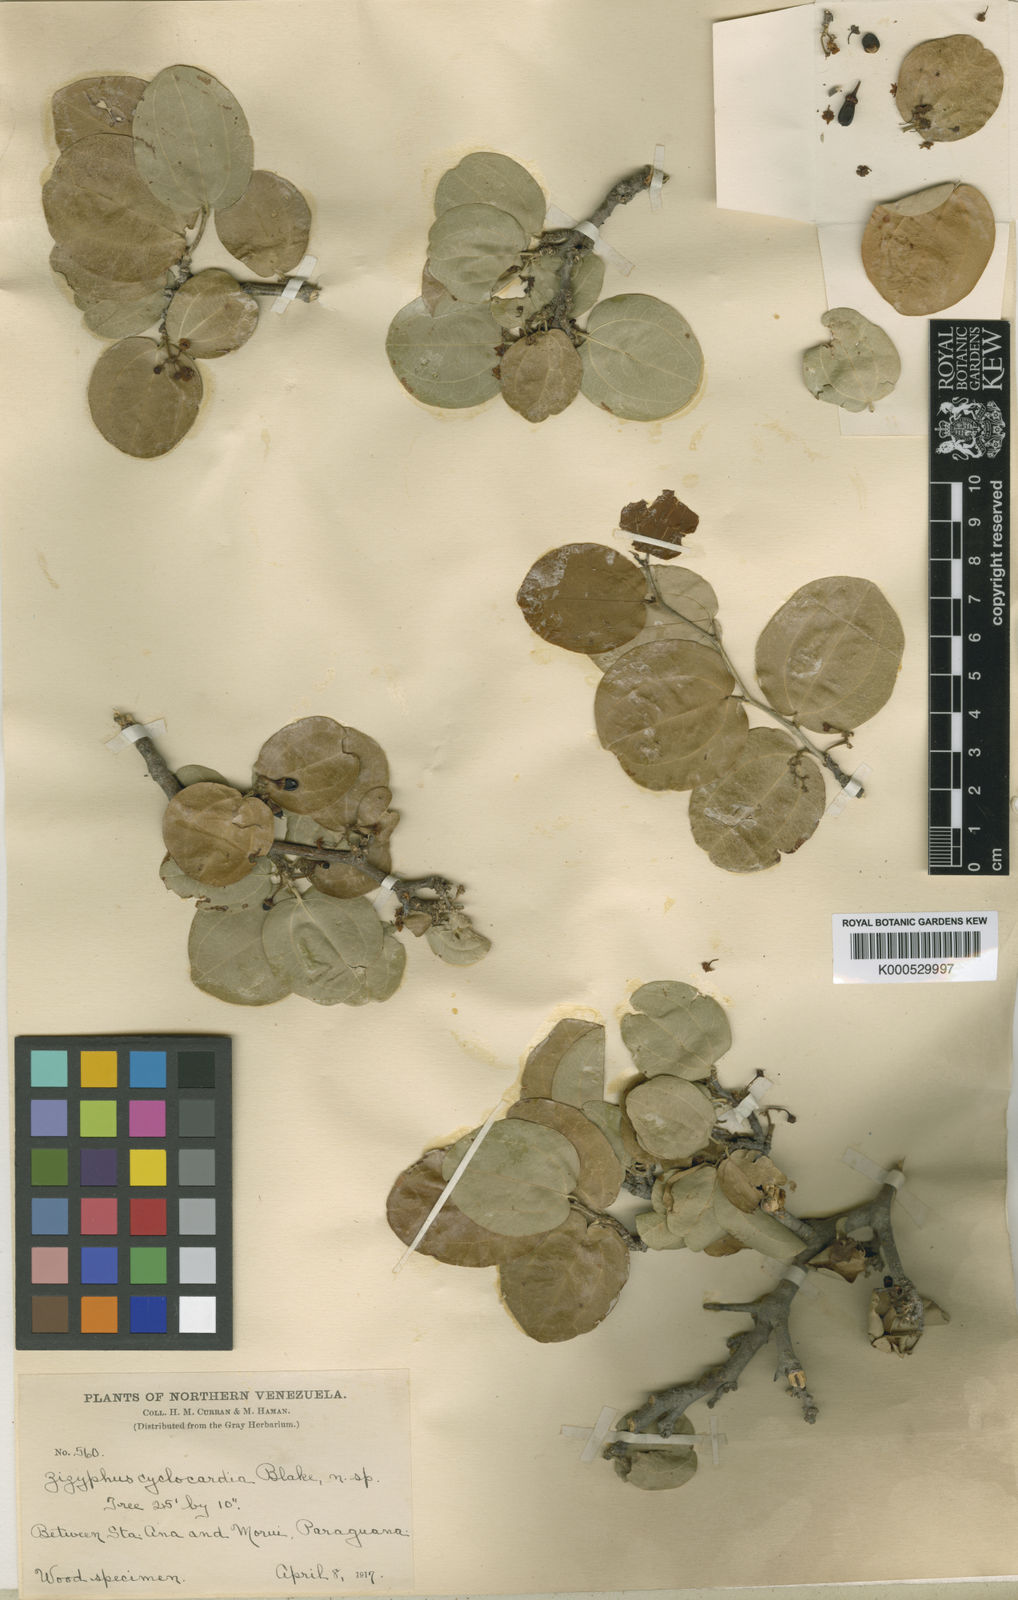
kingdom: Plantae
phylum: Tracheophyta
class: Magnoliopsida
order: Rosales
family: Rhamnaceae
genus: Sarcomphalus
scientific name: Sarcomphalus cyclocardius
